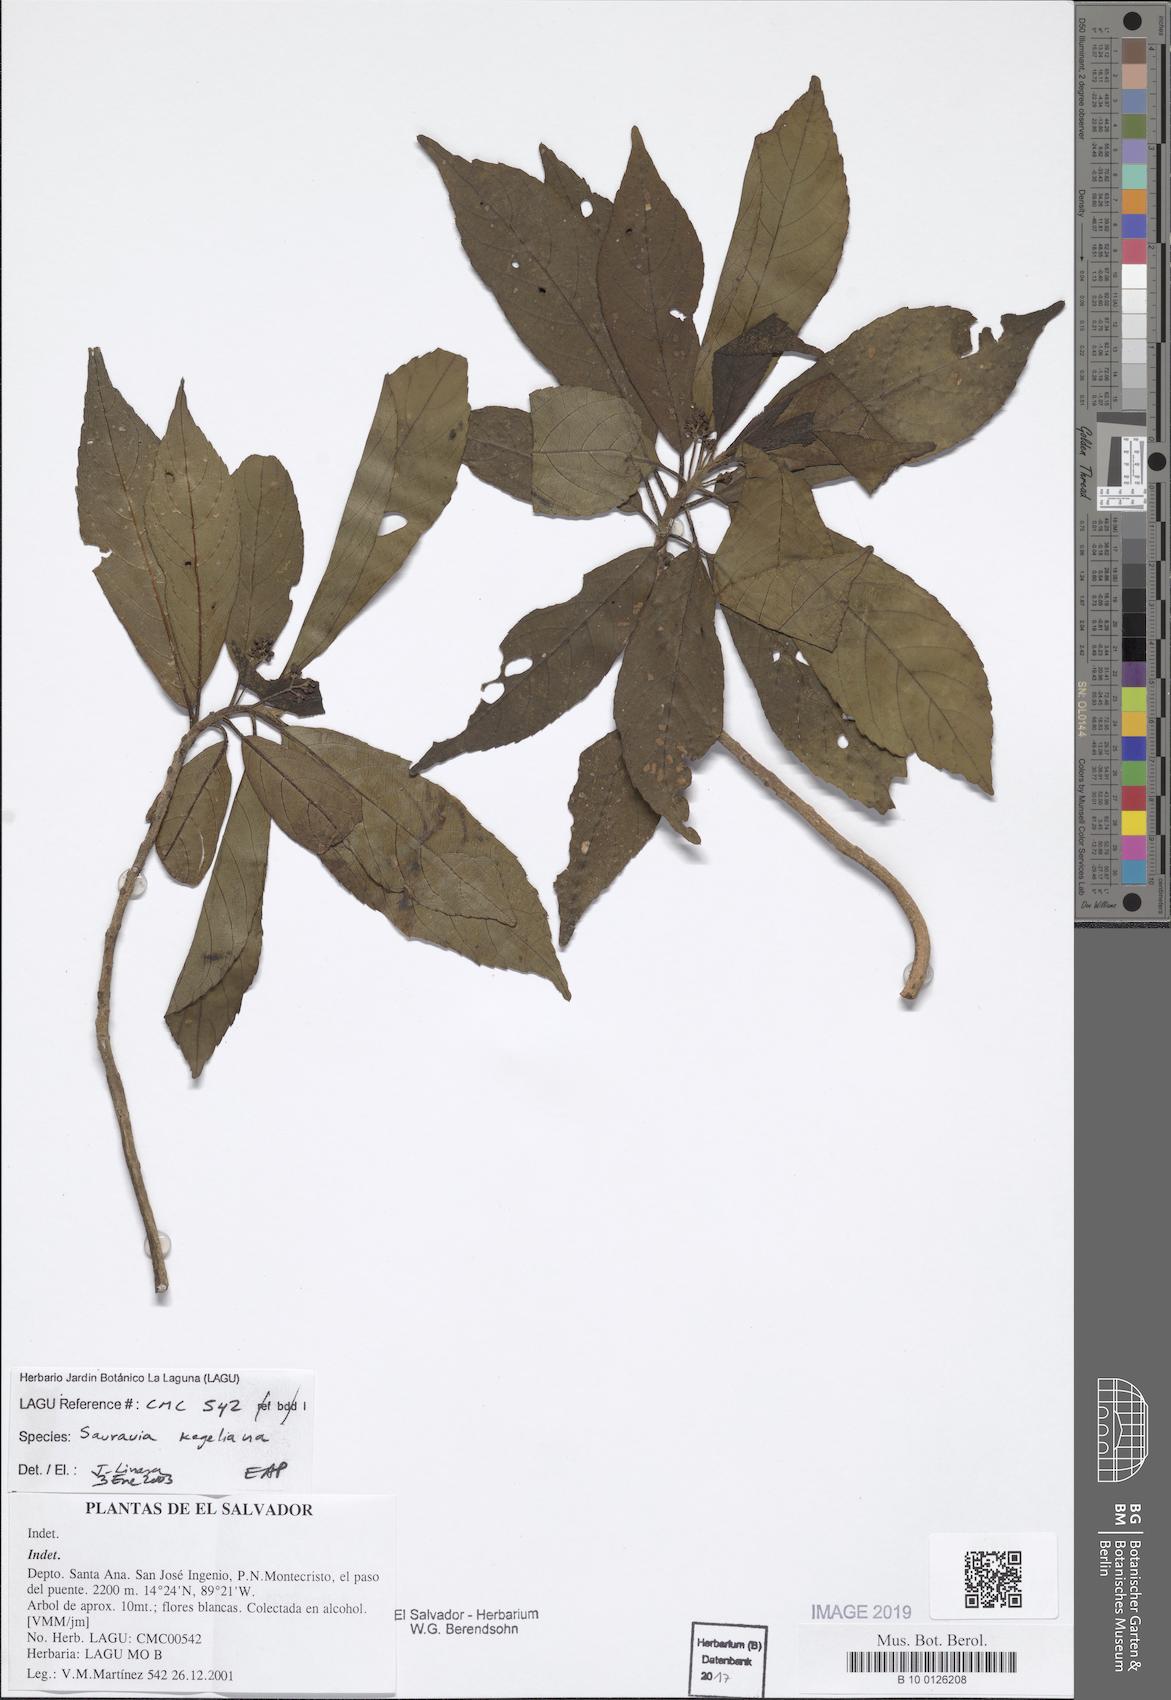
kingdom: Plantae
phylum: Tracheophyta
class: Magnoliopsida
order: Ericales
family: Actinidiaceae
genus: Saurauia
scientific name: Saurauia kegeliana
